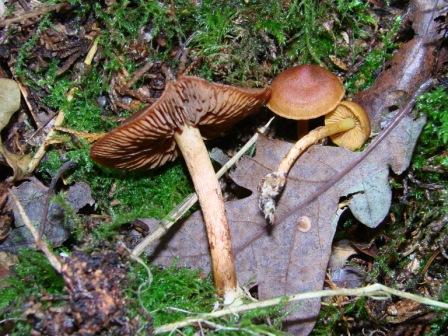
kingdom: Fungi
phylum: Basidiomycota
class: Agaricomycetes
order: Agaricales
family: Cortinariaceae
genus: Cortinarius
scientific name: Cortinarius
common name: gulbladet slørhat
